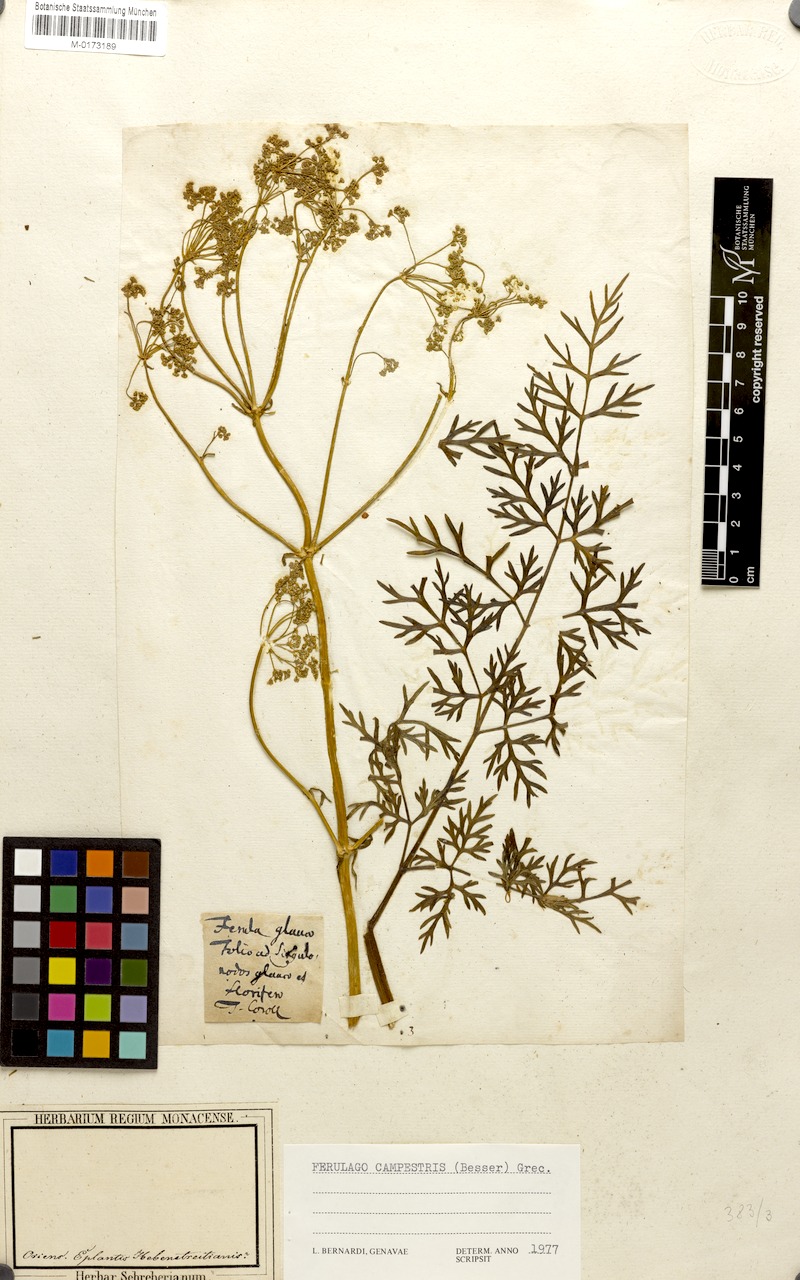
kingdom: Plantae
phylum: Tracheophyta
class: Magnoliopsida
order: Apiales
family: Apiaceae
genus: Ferulago
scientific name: Ferulago galbanifera
